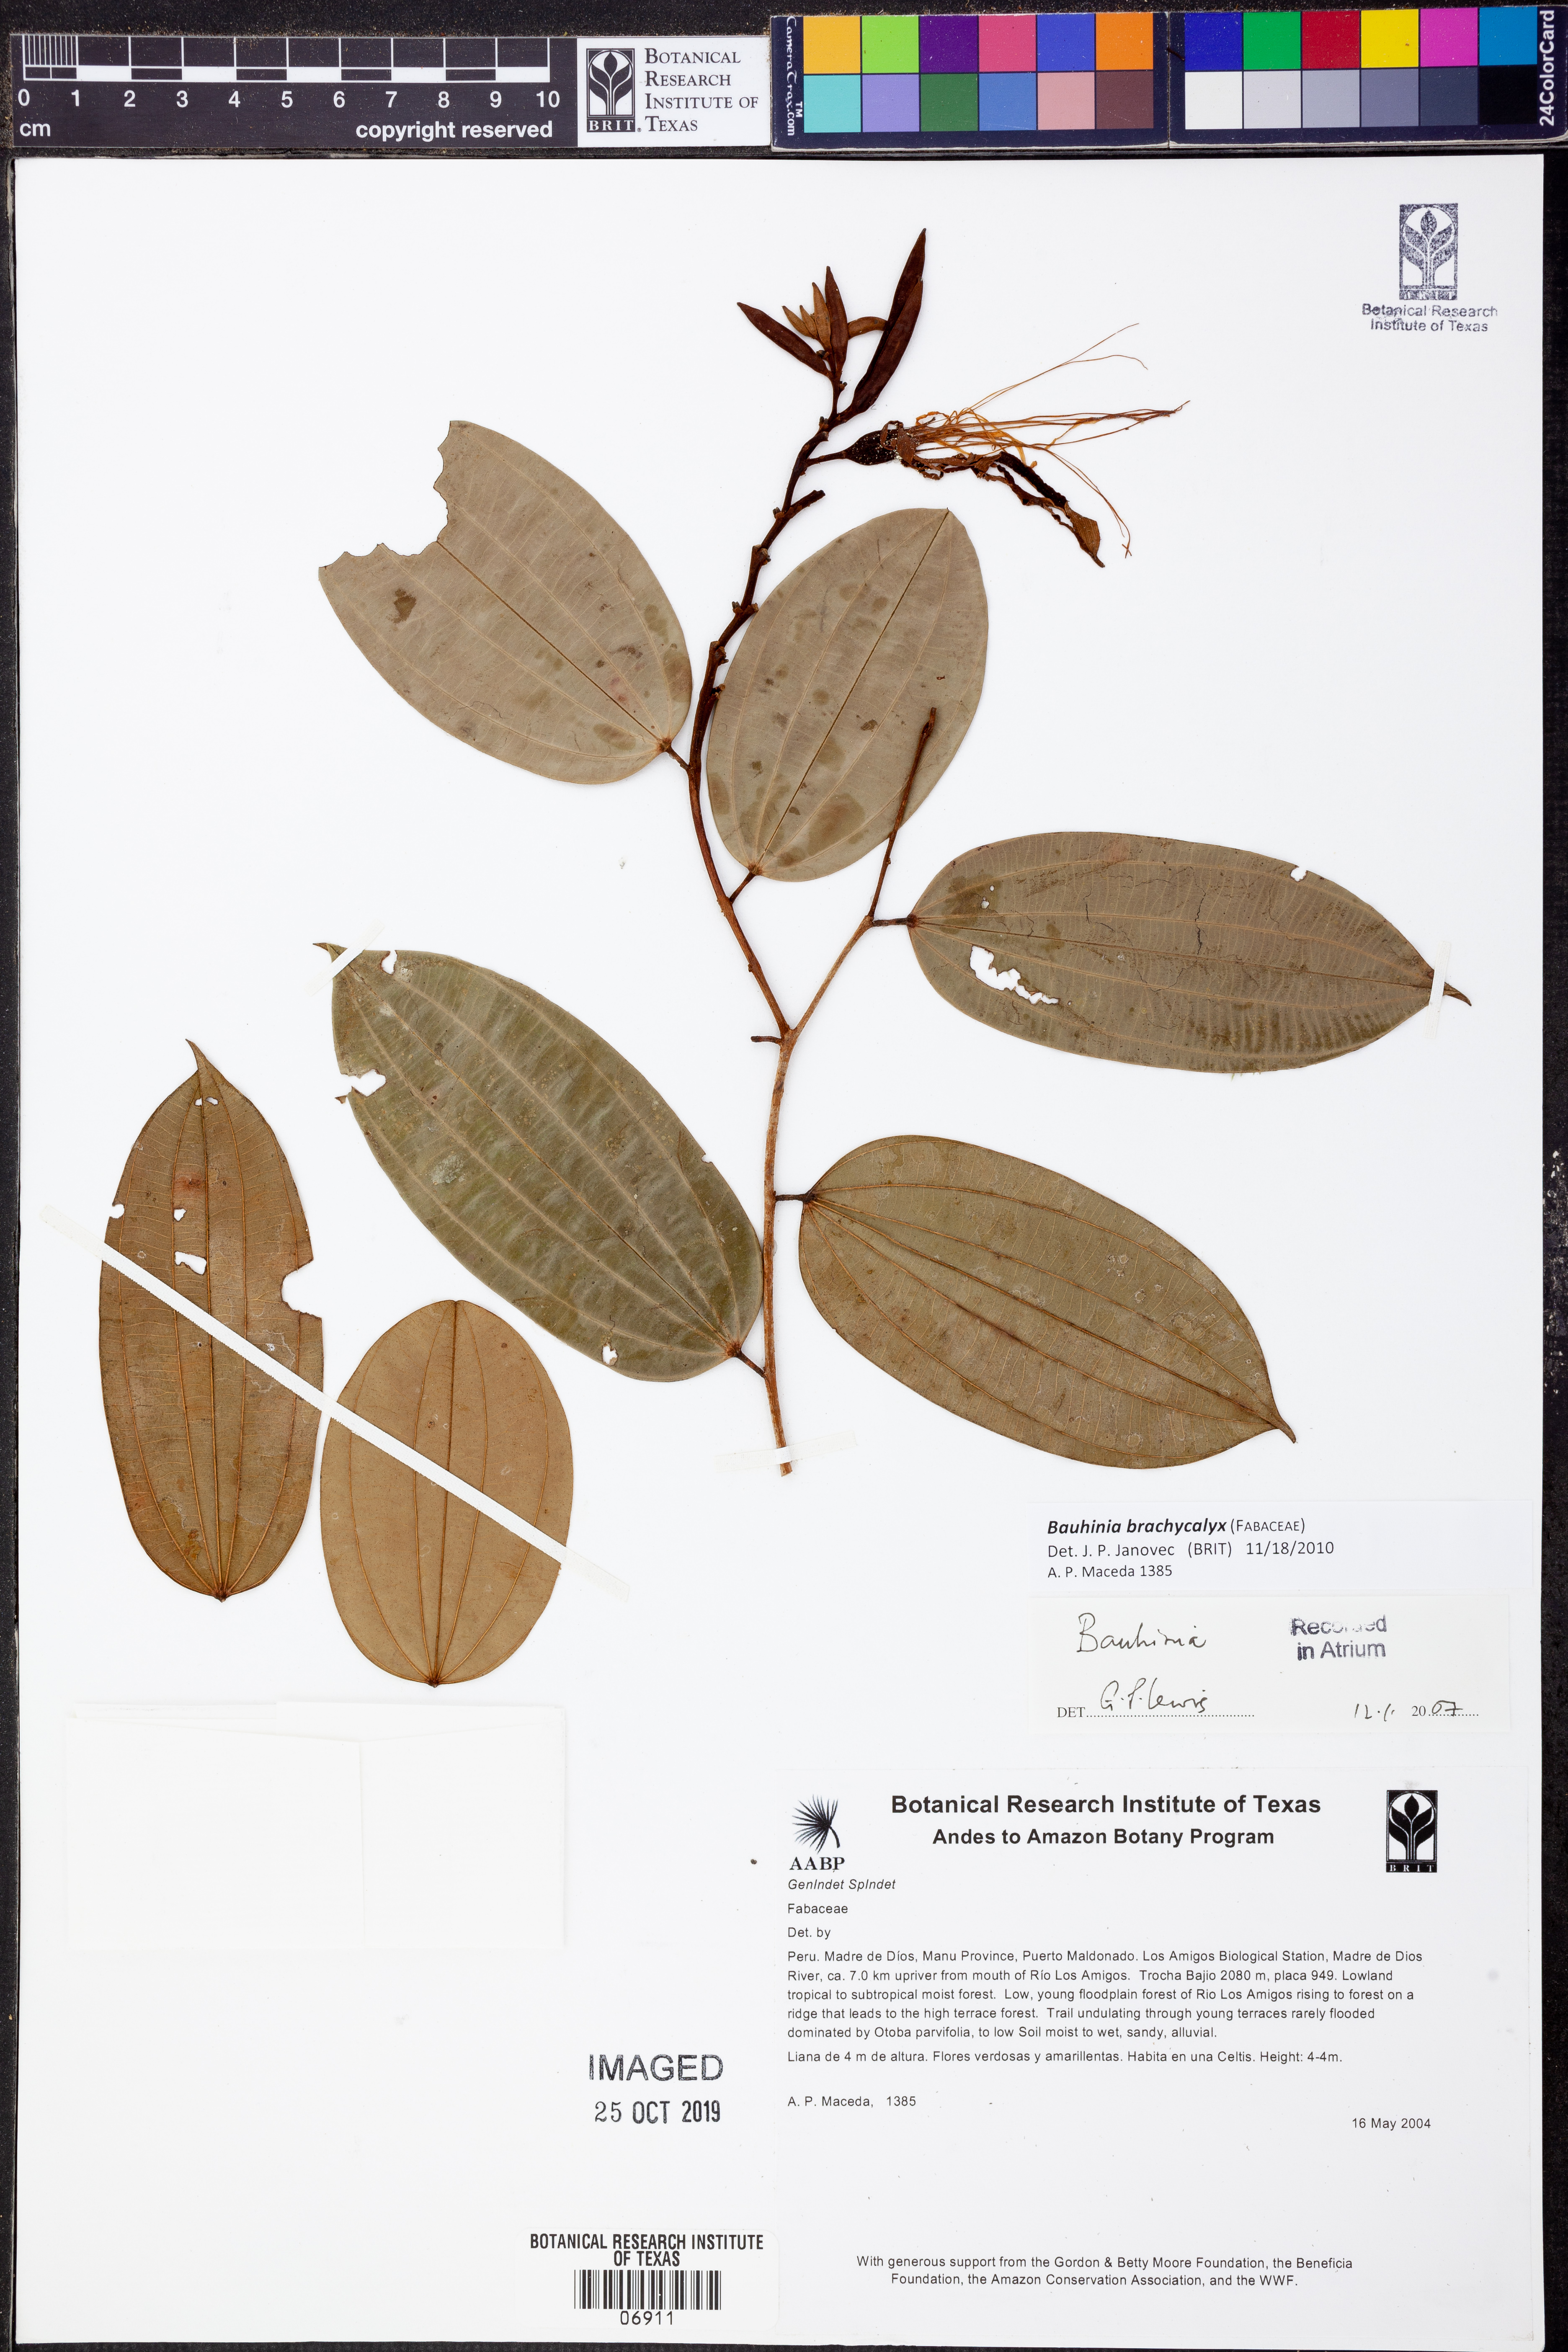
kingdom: Plantae
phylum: Tracheophyta
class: Magnoliopsida
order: Fabales
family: Fabaceae
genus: Bauhinia
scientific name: Bauhinia
